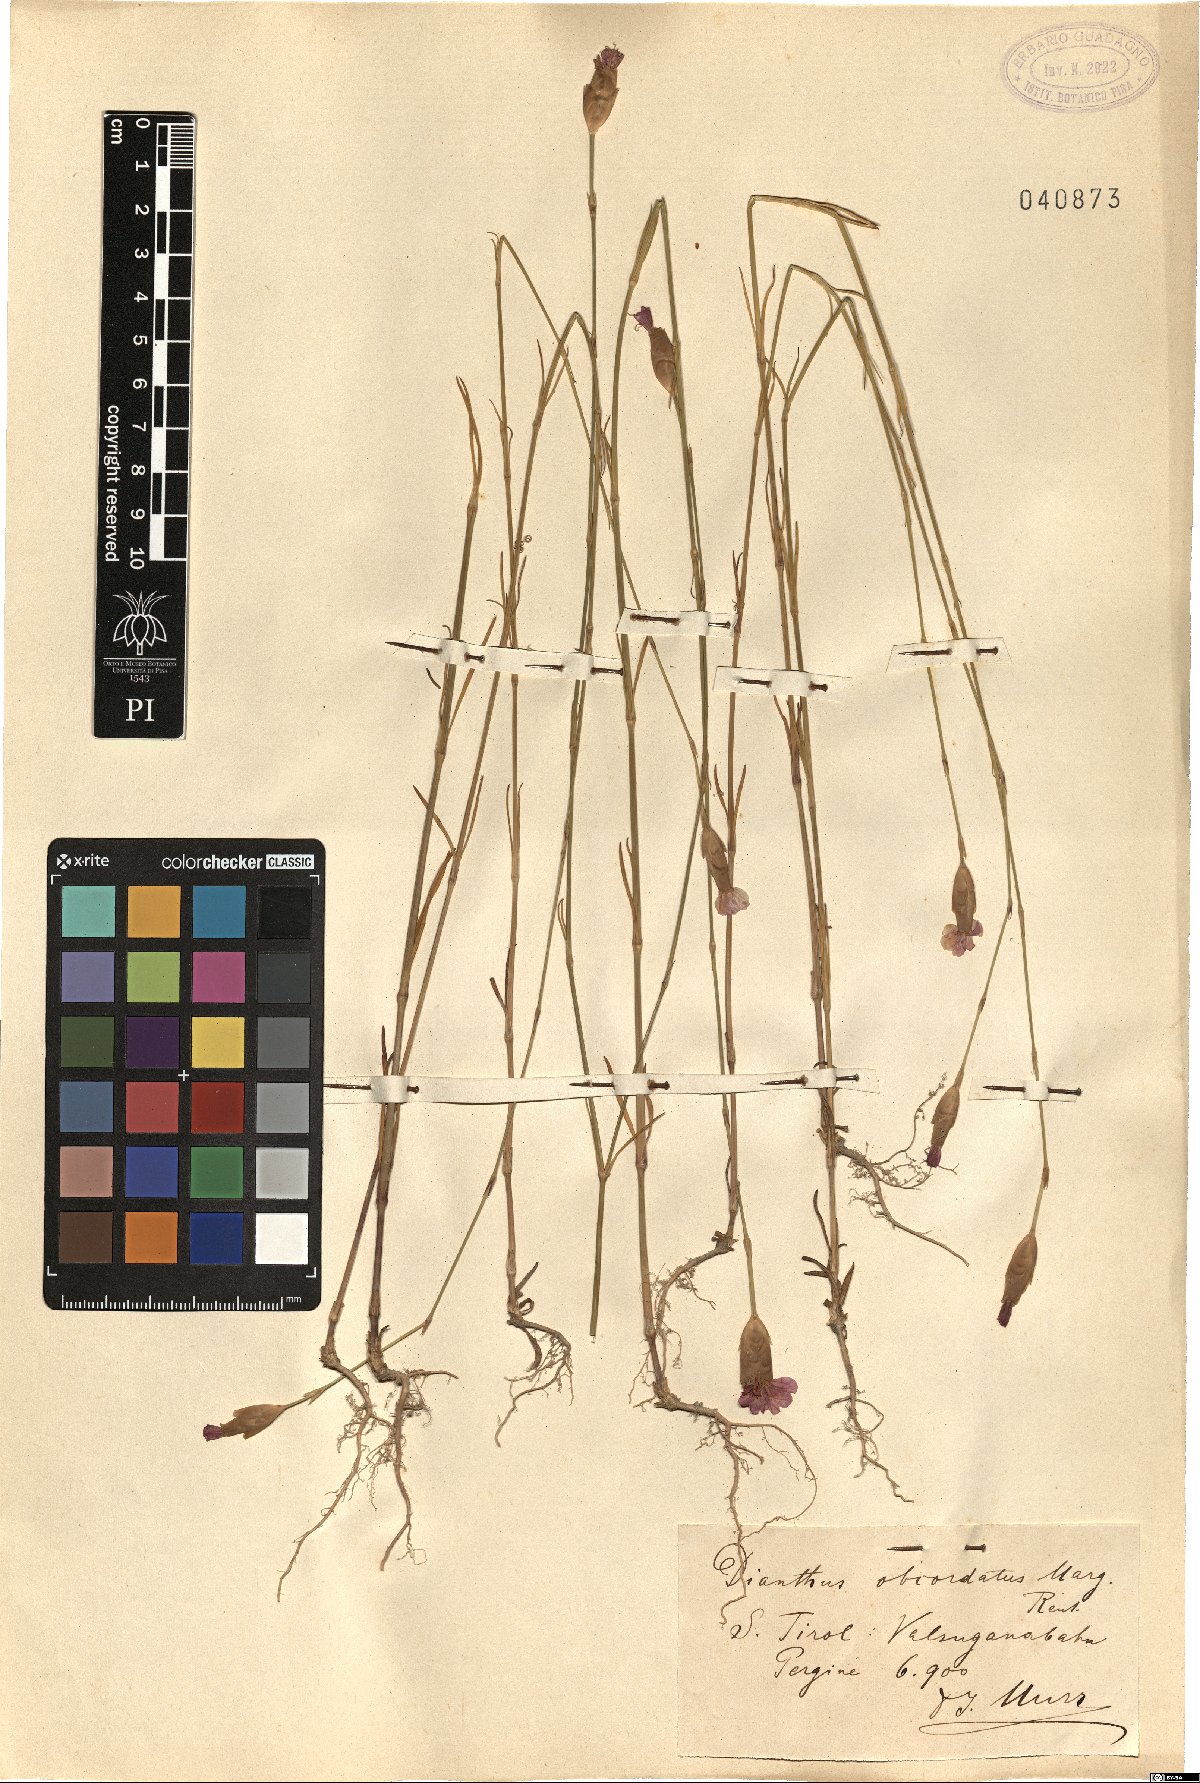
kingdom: Plantae
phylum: Tracheophyta
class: Magnoliopsida
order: Caryophyllales
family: Caryophyllaceae
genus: Petrorhagia
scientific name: Petrorhagia obcordata
